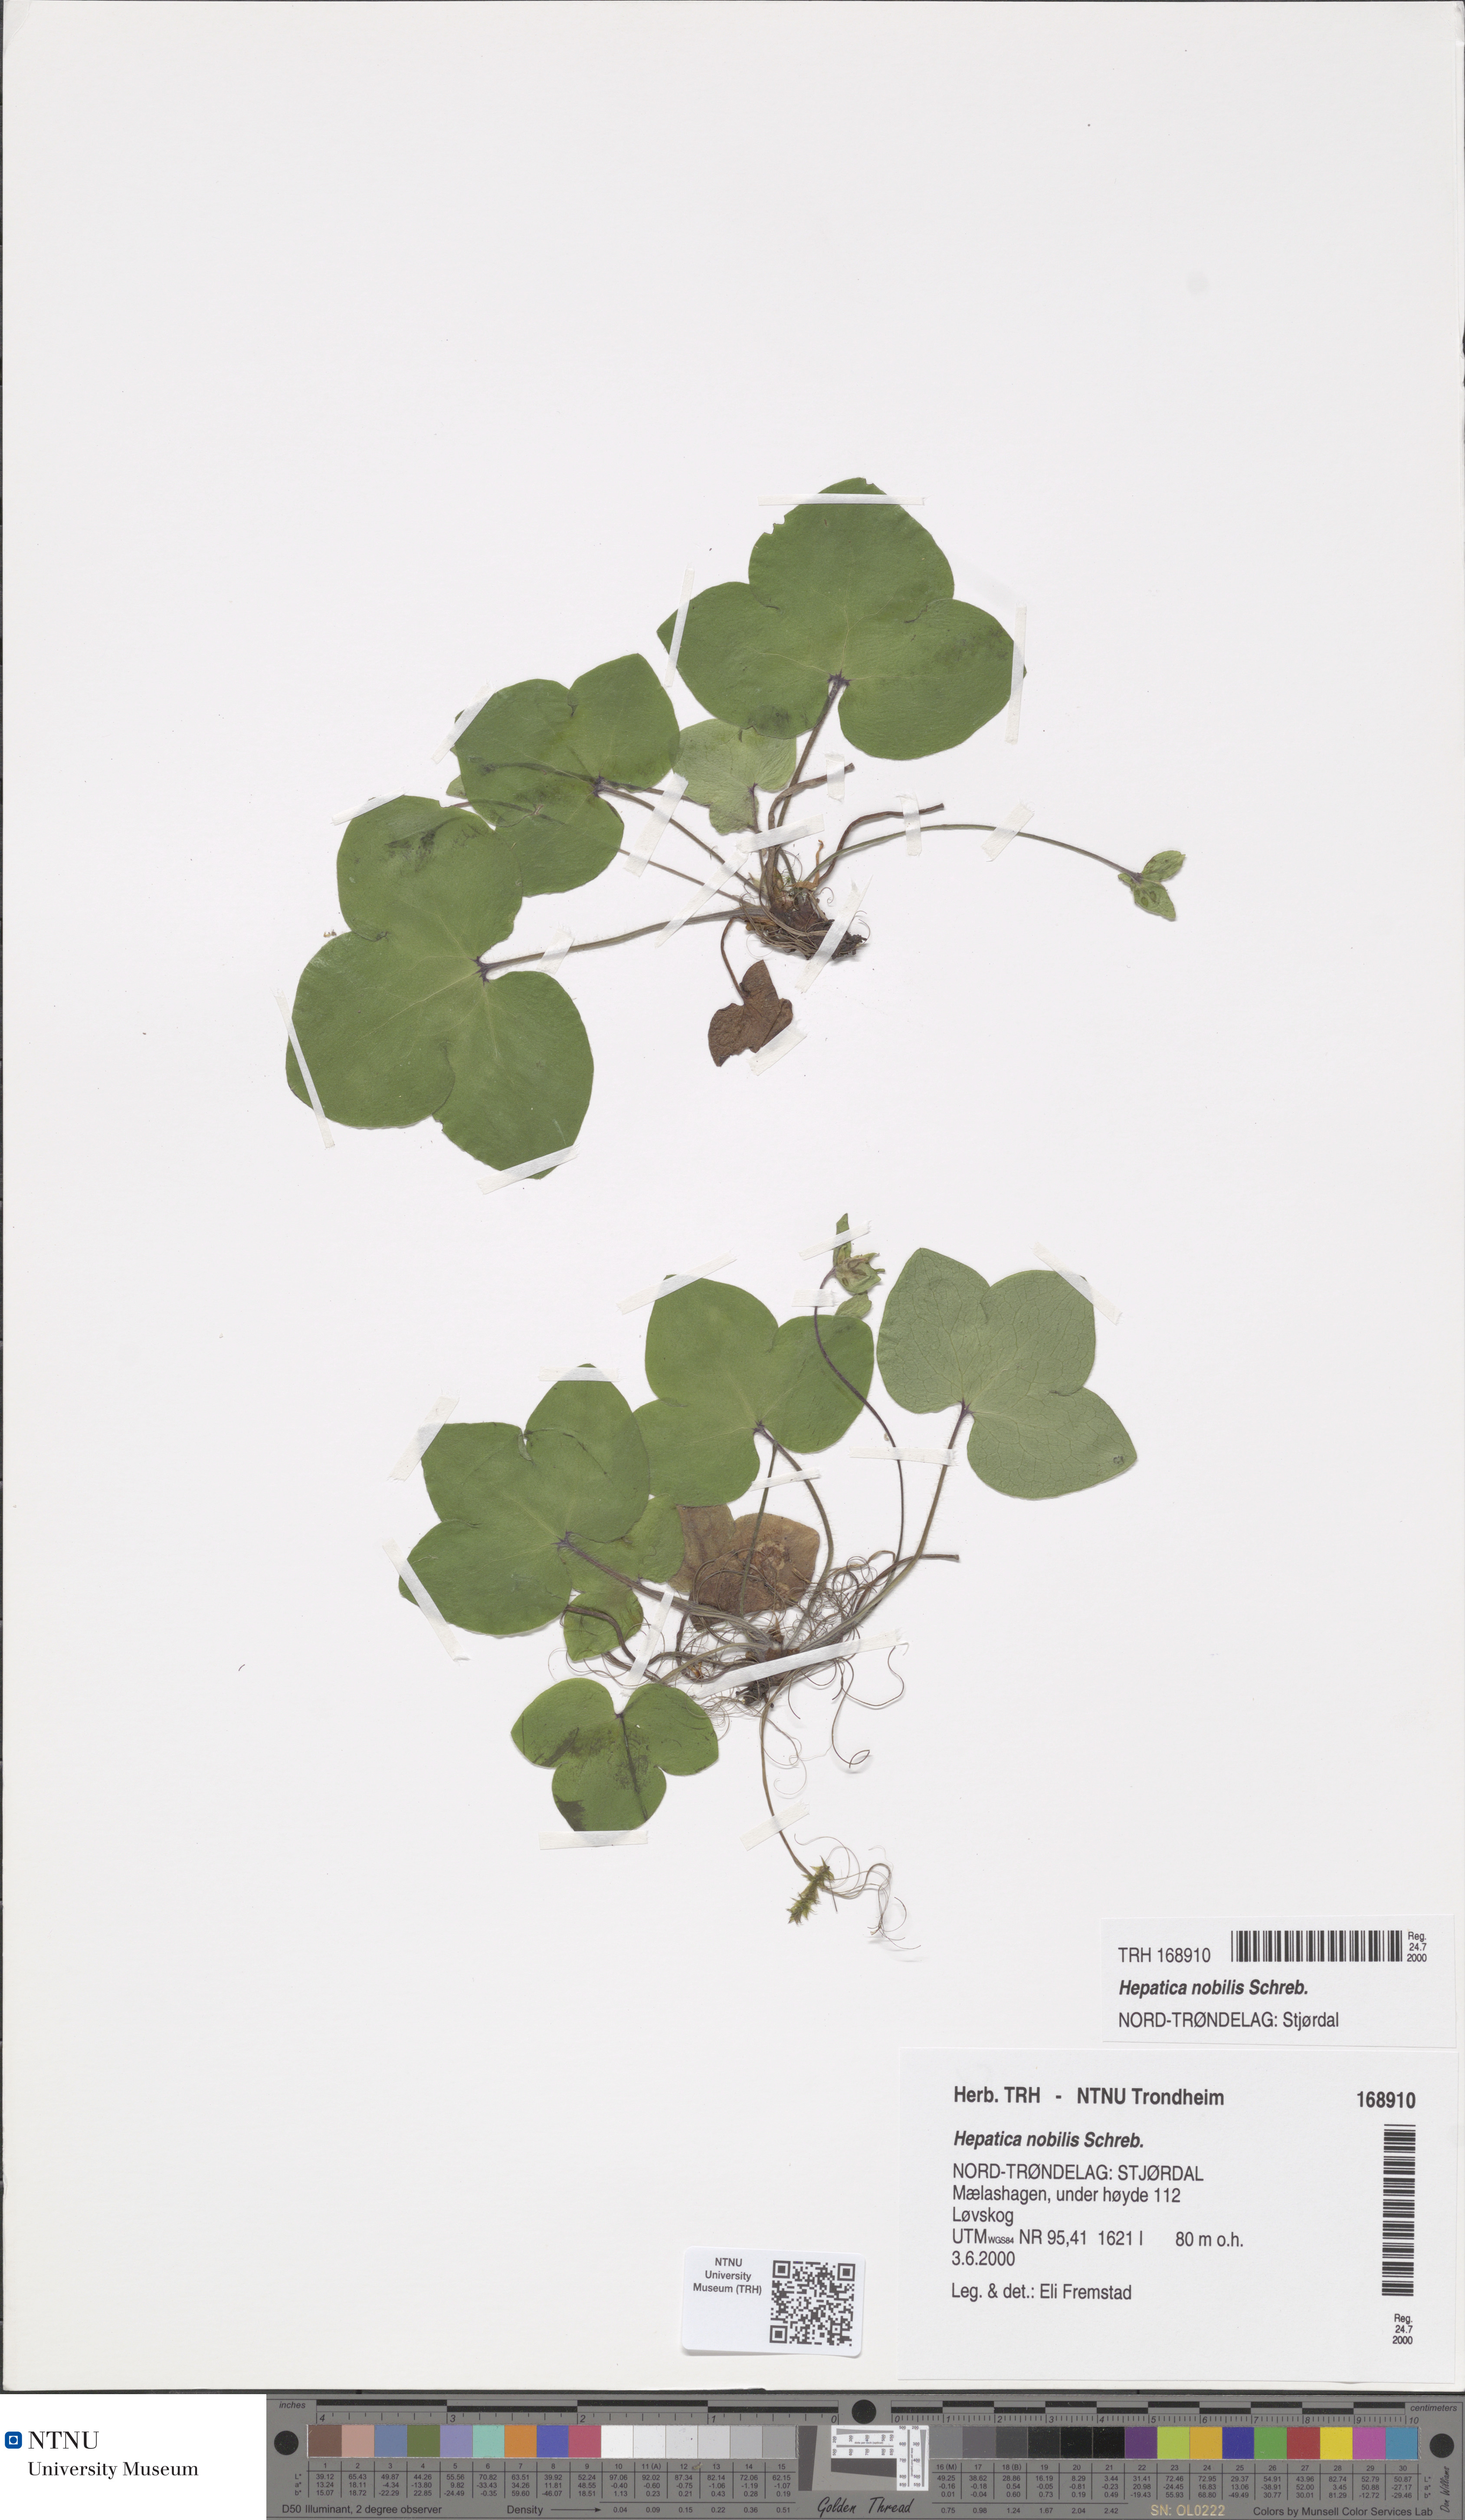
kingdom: Plantae
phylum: Tracheophyta
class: Magnoliopsida
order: Ranunculales
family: Ranunculaceae
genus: Hepatica
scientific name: Hepatica nobilis
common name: Liverleaf
